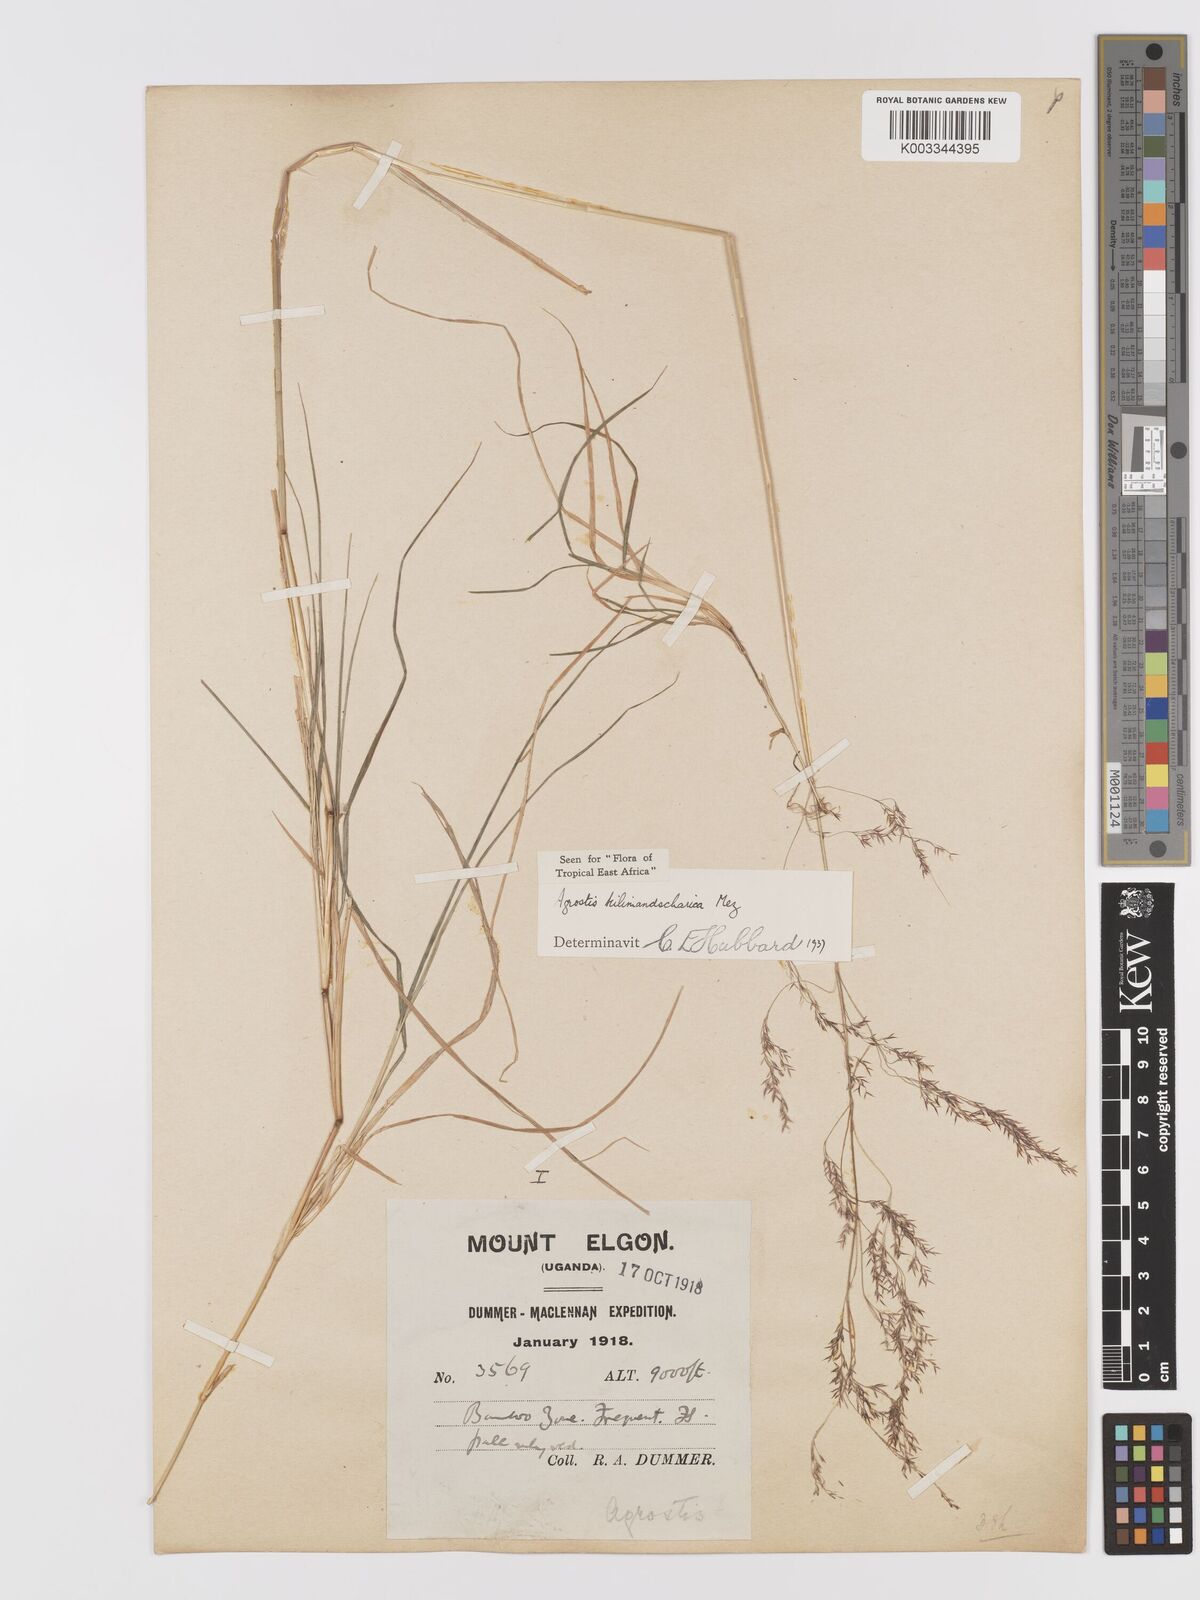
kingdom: Plantae
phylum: Tracheophyta
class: Liliopsida
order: Poales
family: Poaceae
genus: Agrostis
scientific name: Agrostis kilimandscharica
